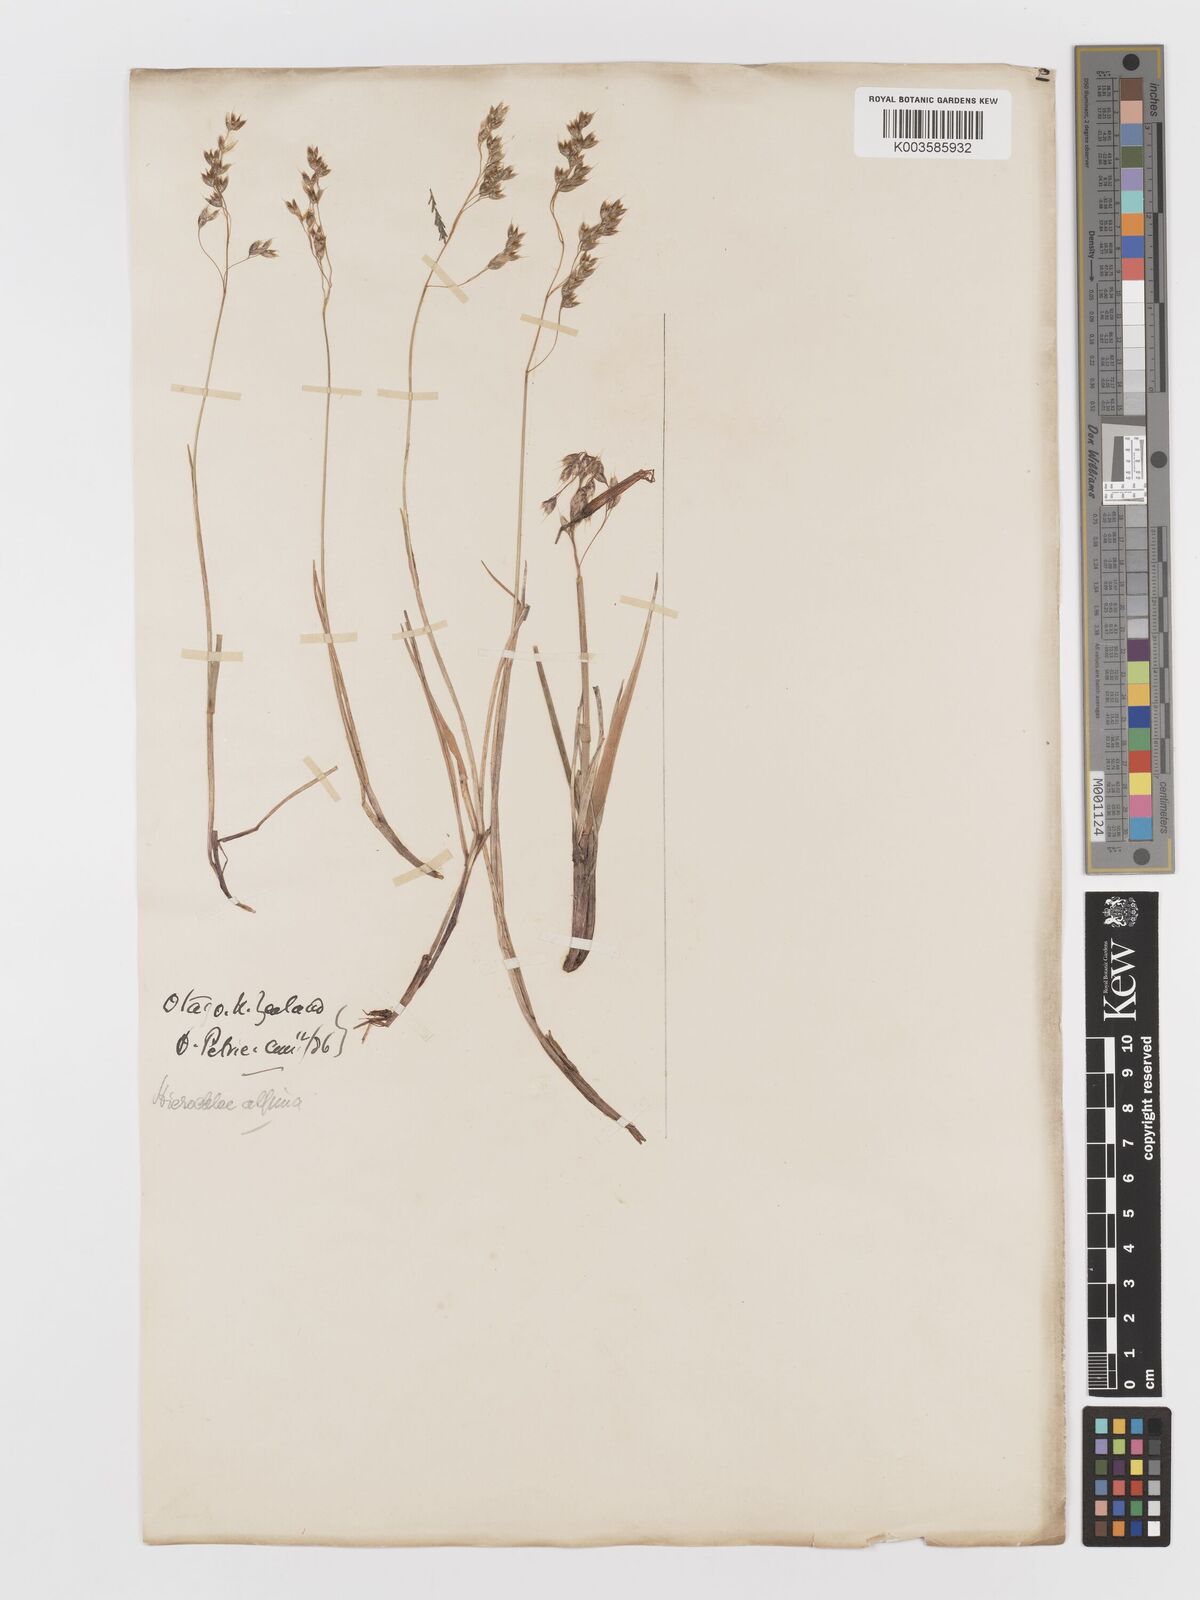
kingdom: Plantae
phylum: Tracheophyta
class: Liliopsida
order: Poales
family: Poaceae
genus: Anthoxanthum
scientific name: Anthoxanthum novae-zelandiae
